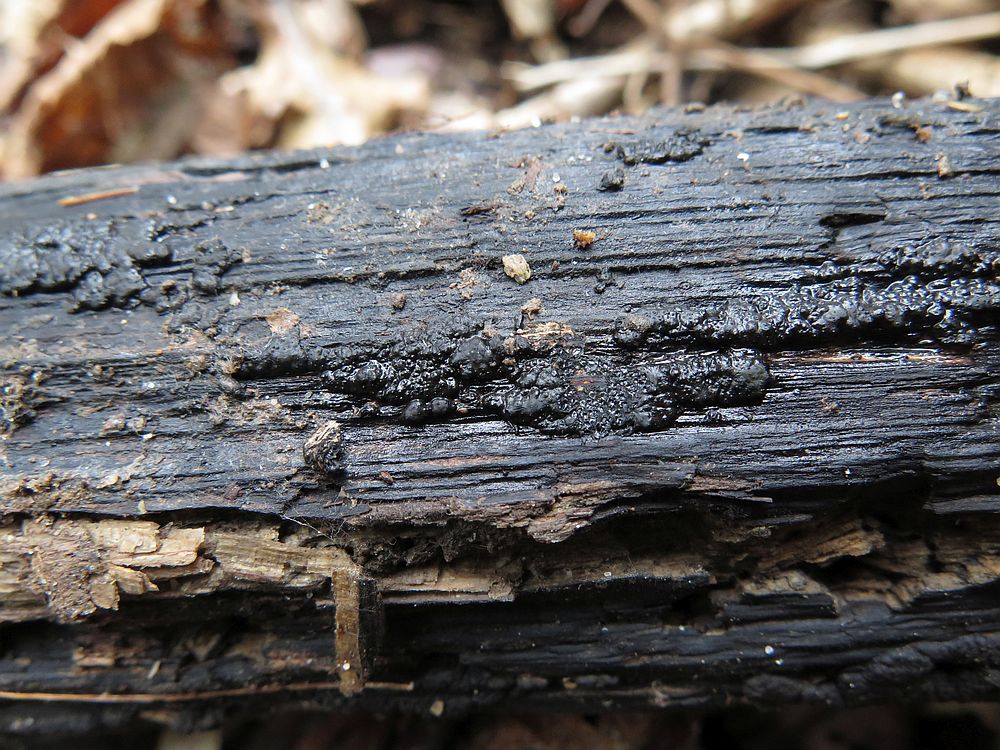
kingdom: Fungi
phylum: Ascomycota
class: Sordariomycetes
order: Xylariales
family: Xylariaceae
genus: Nemania
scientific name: Nemania serpens
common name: almindelig kuldyne
